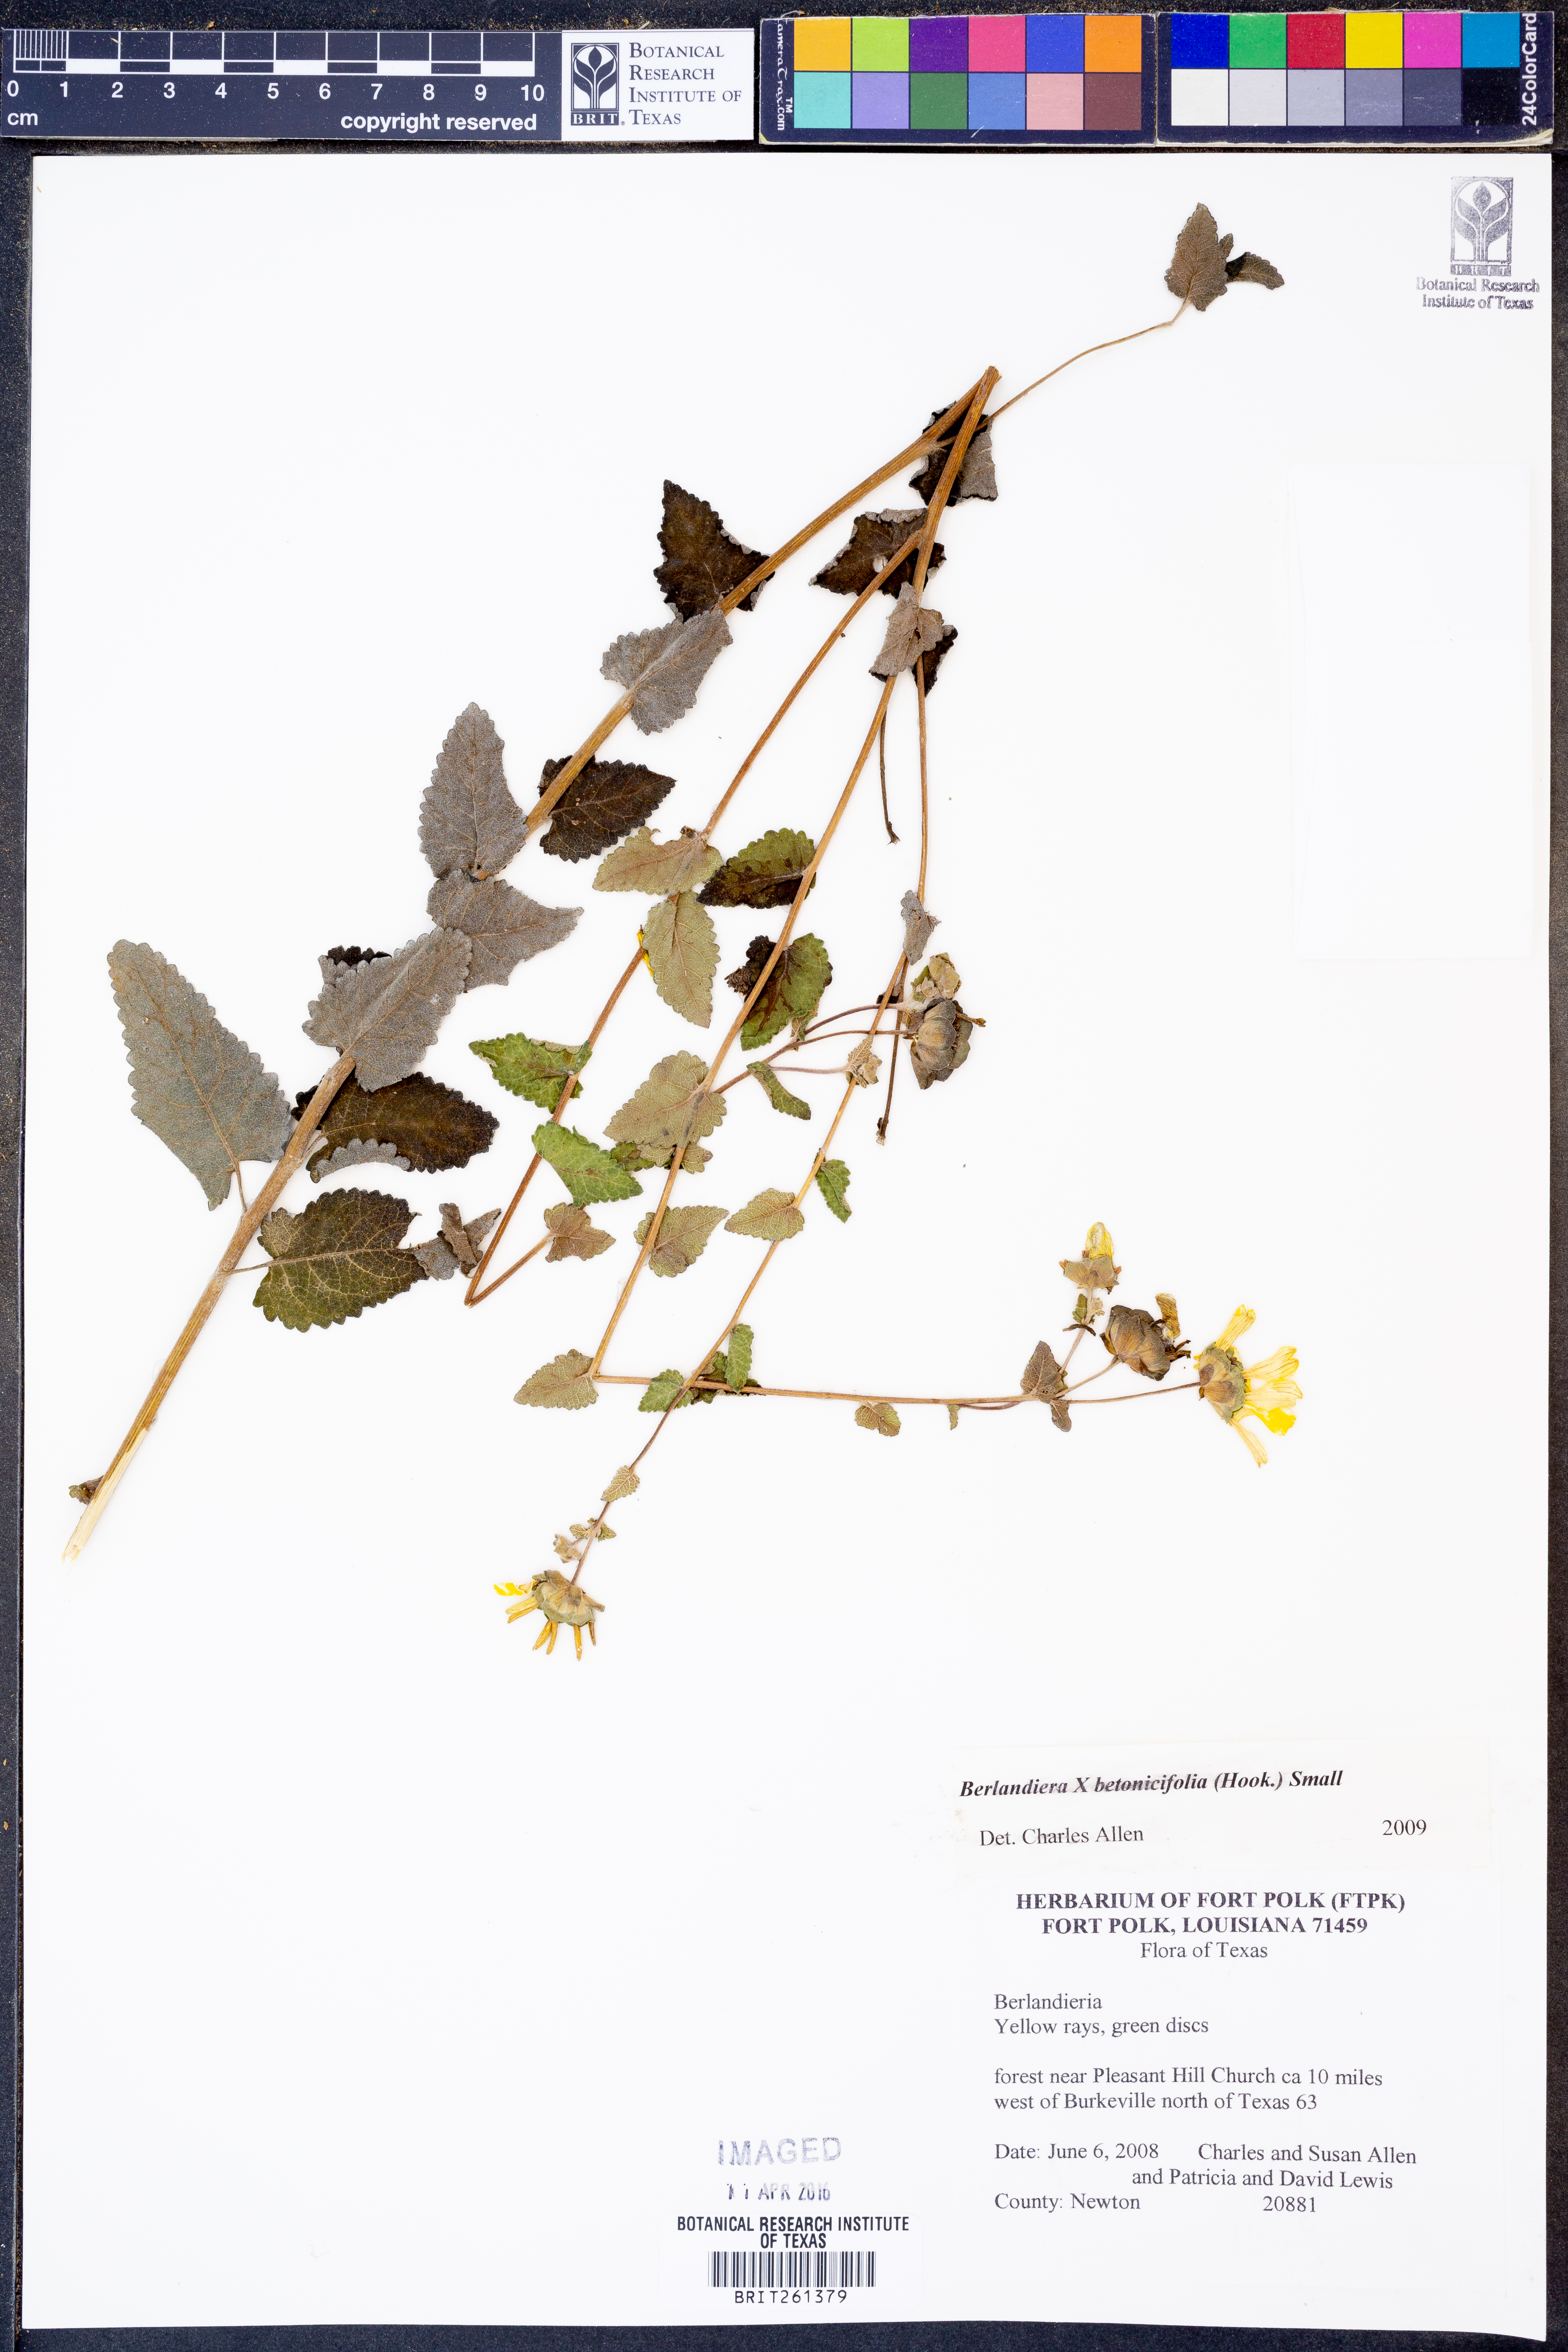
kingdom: Plantae
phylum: Tracheophyta
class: Magnoliopsida
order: Asterales
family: Asteraceae
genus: Berlandiera
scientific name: Berlandiera betonicifolia
